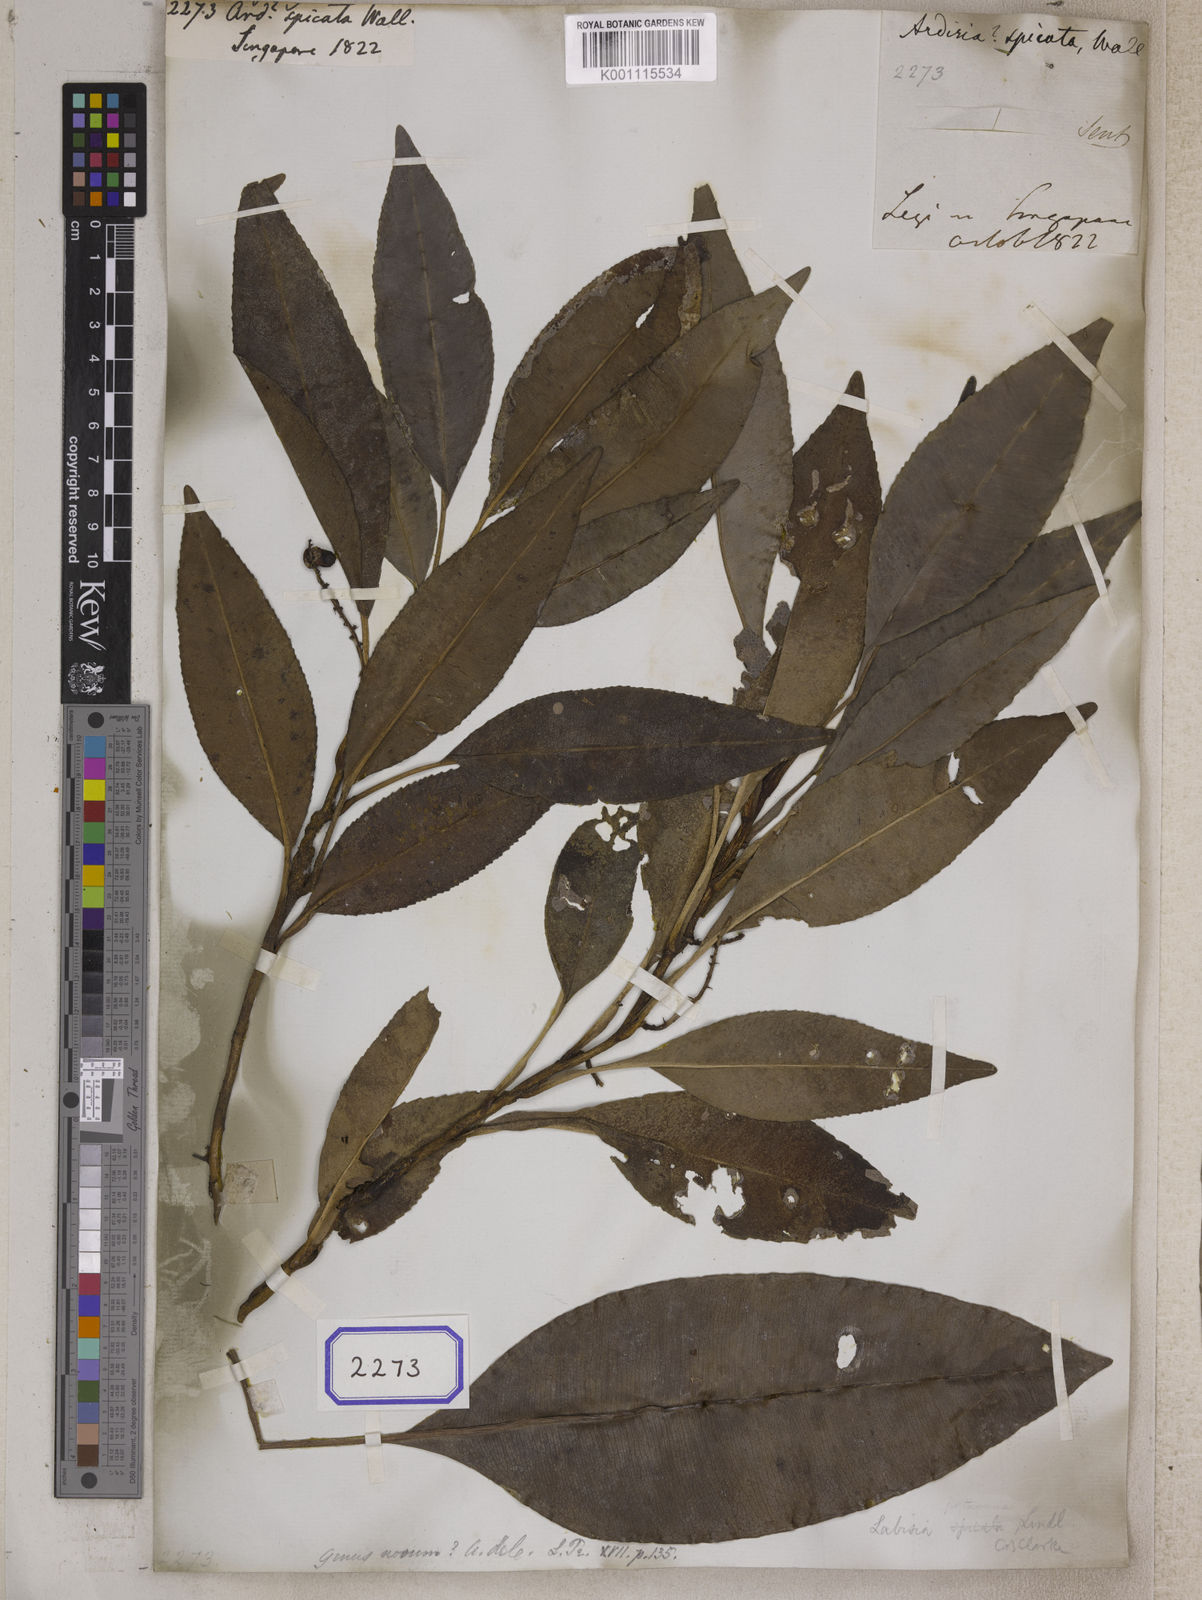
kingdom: Plantae
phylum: Tracheophyta
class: Magnoliopsida
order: Ericales
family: Primulaceae
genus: Ardisia
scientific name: Ardisia
